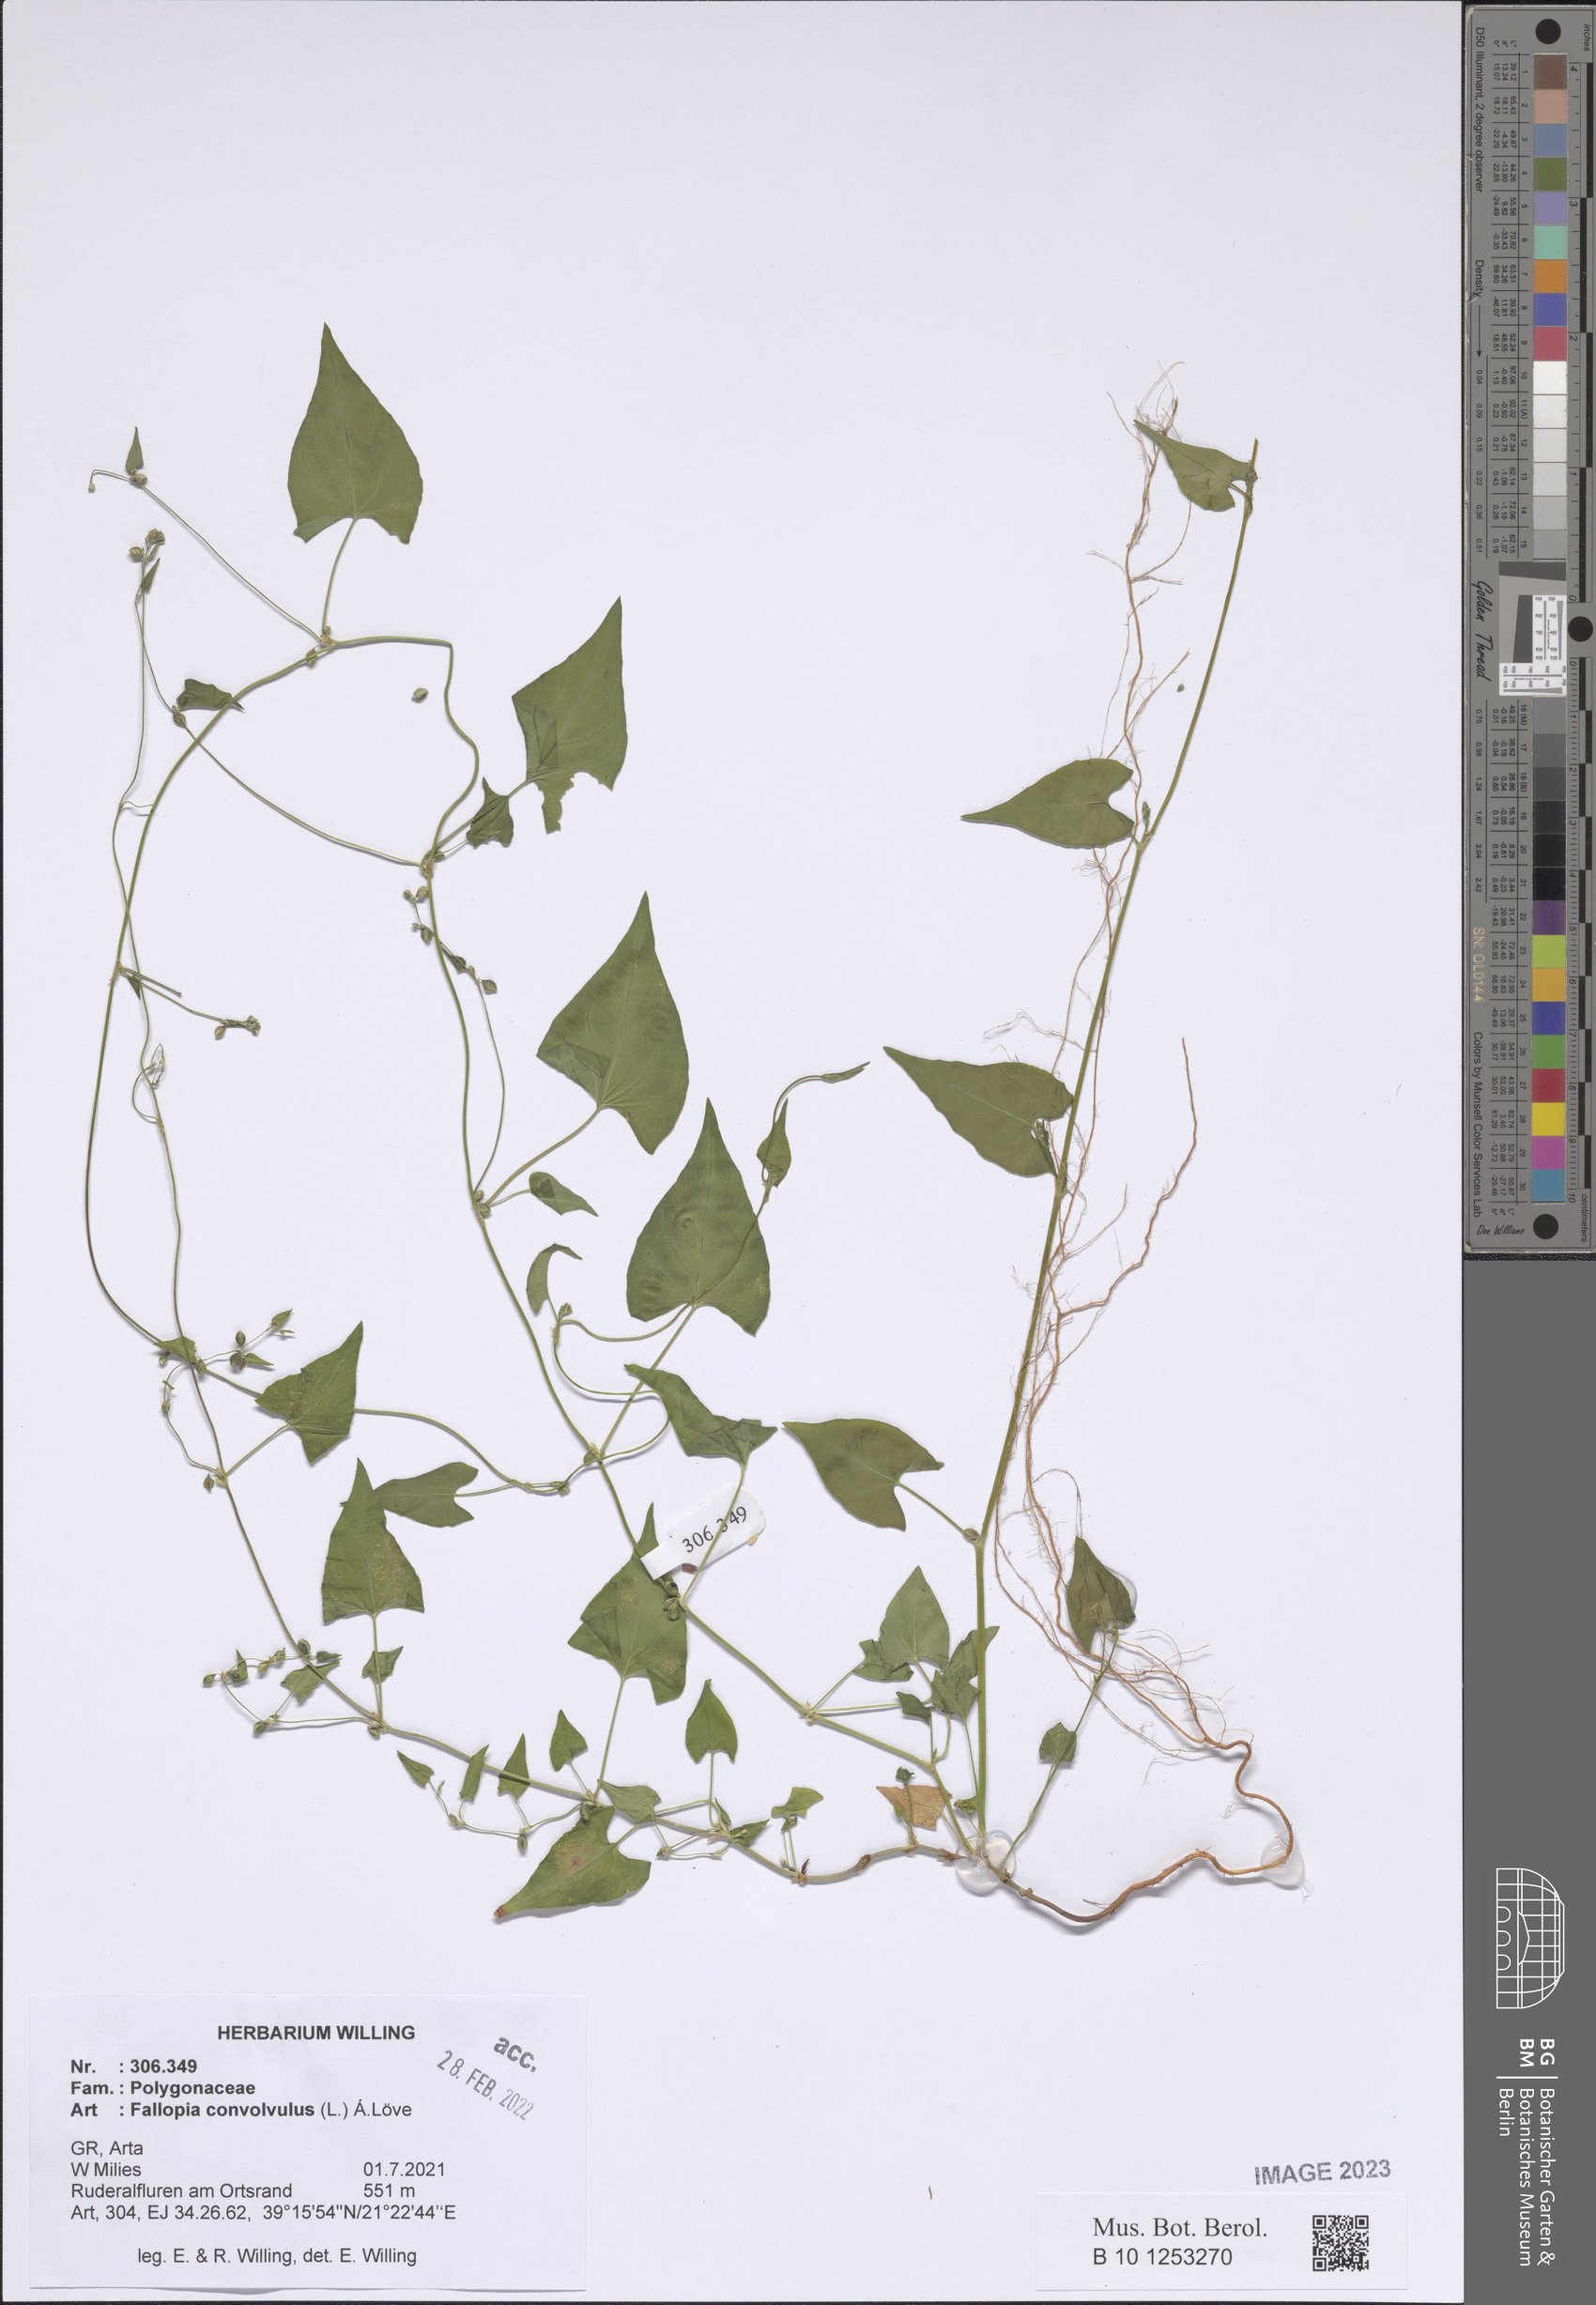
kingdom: Plantae
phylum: Tracheophyta
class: Magnoliopsida
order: Caryophyllales
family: Polygonaceae
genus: Fallopia
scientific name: Fallopia convolvulus
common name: Black bindweed
